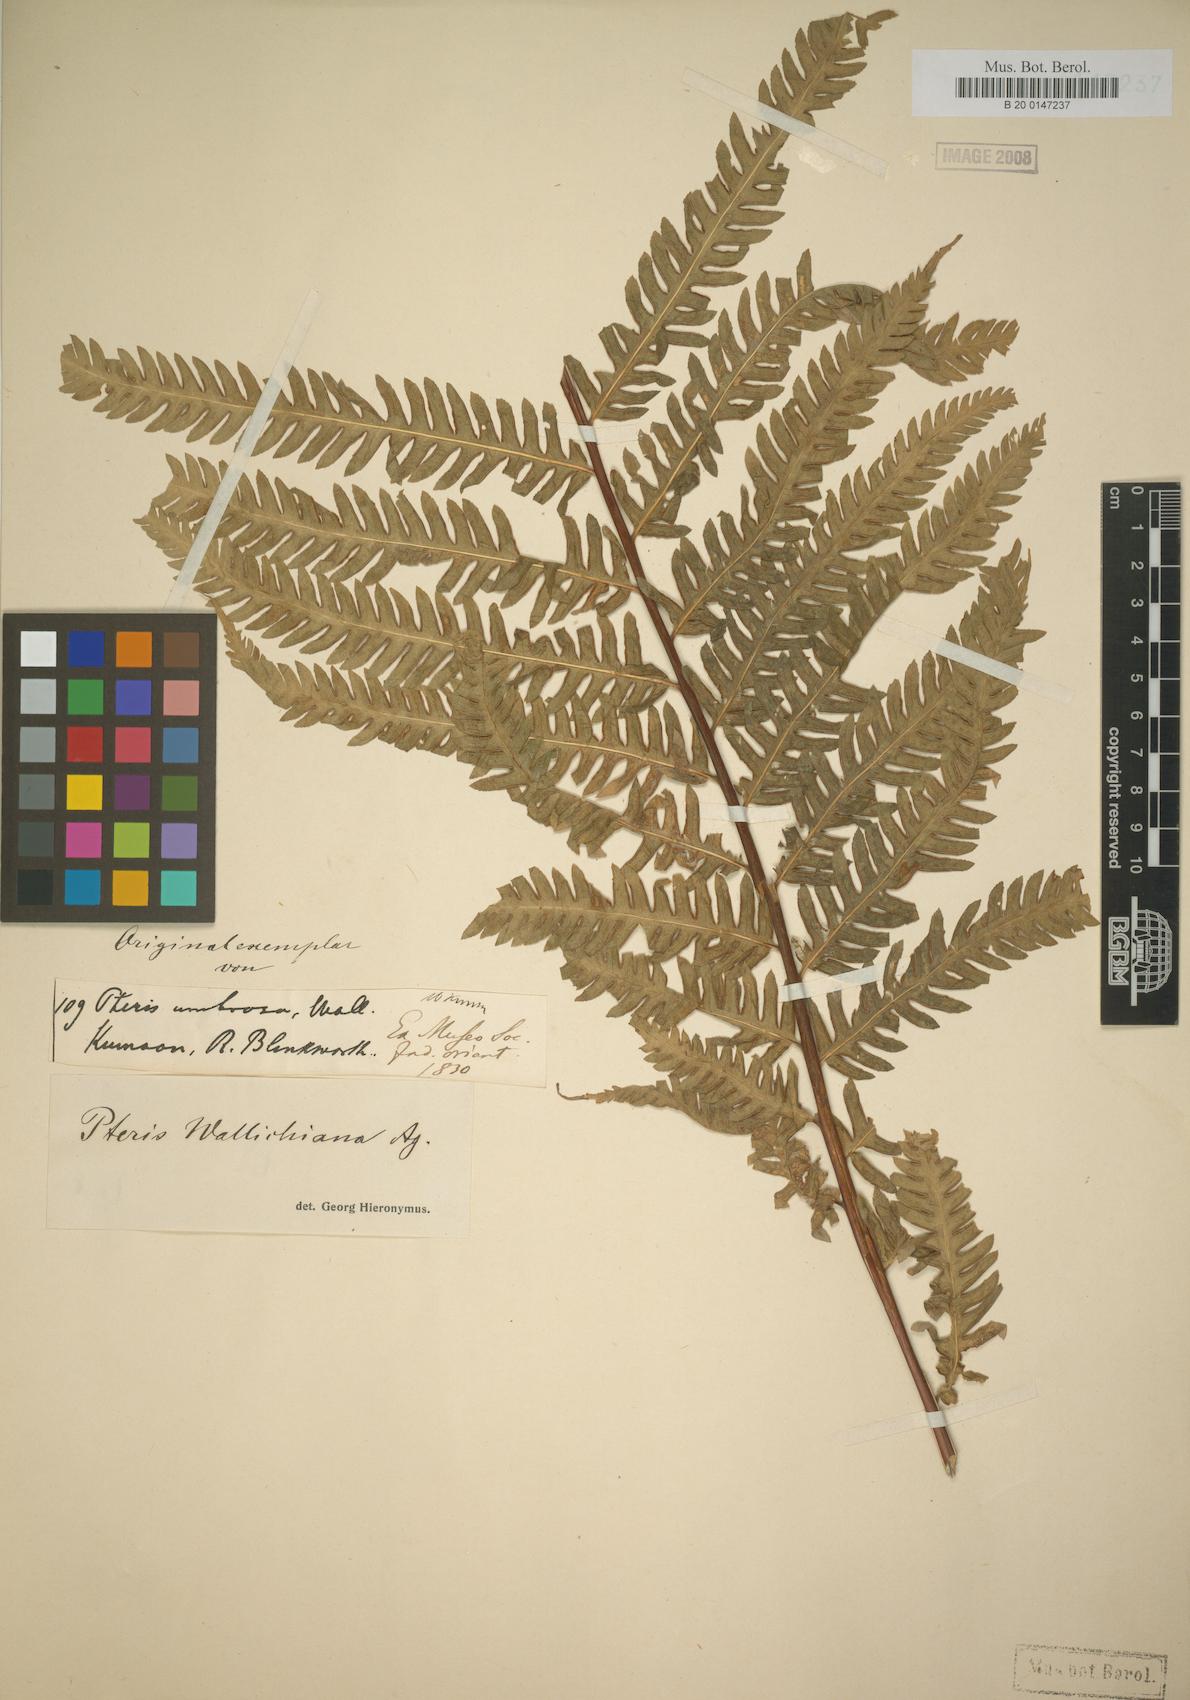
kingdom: Plantae
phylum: Tracheophyta
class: Polypodiopsida
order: Polypodiales
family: Pteridaceae
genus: Pteris
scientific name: Pteris wallichiana
